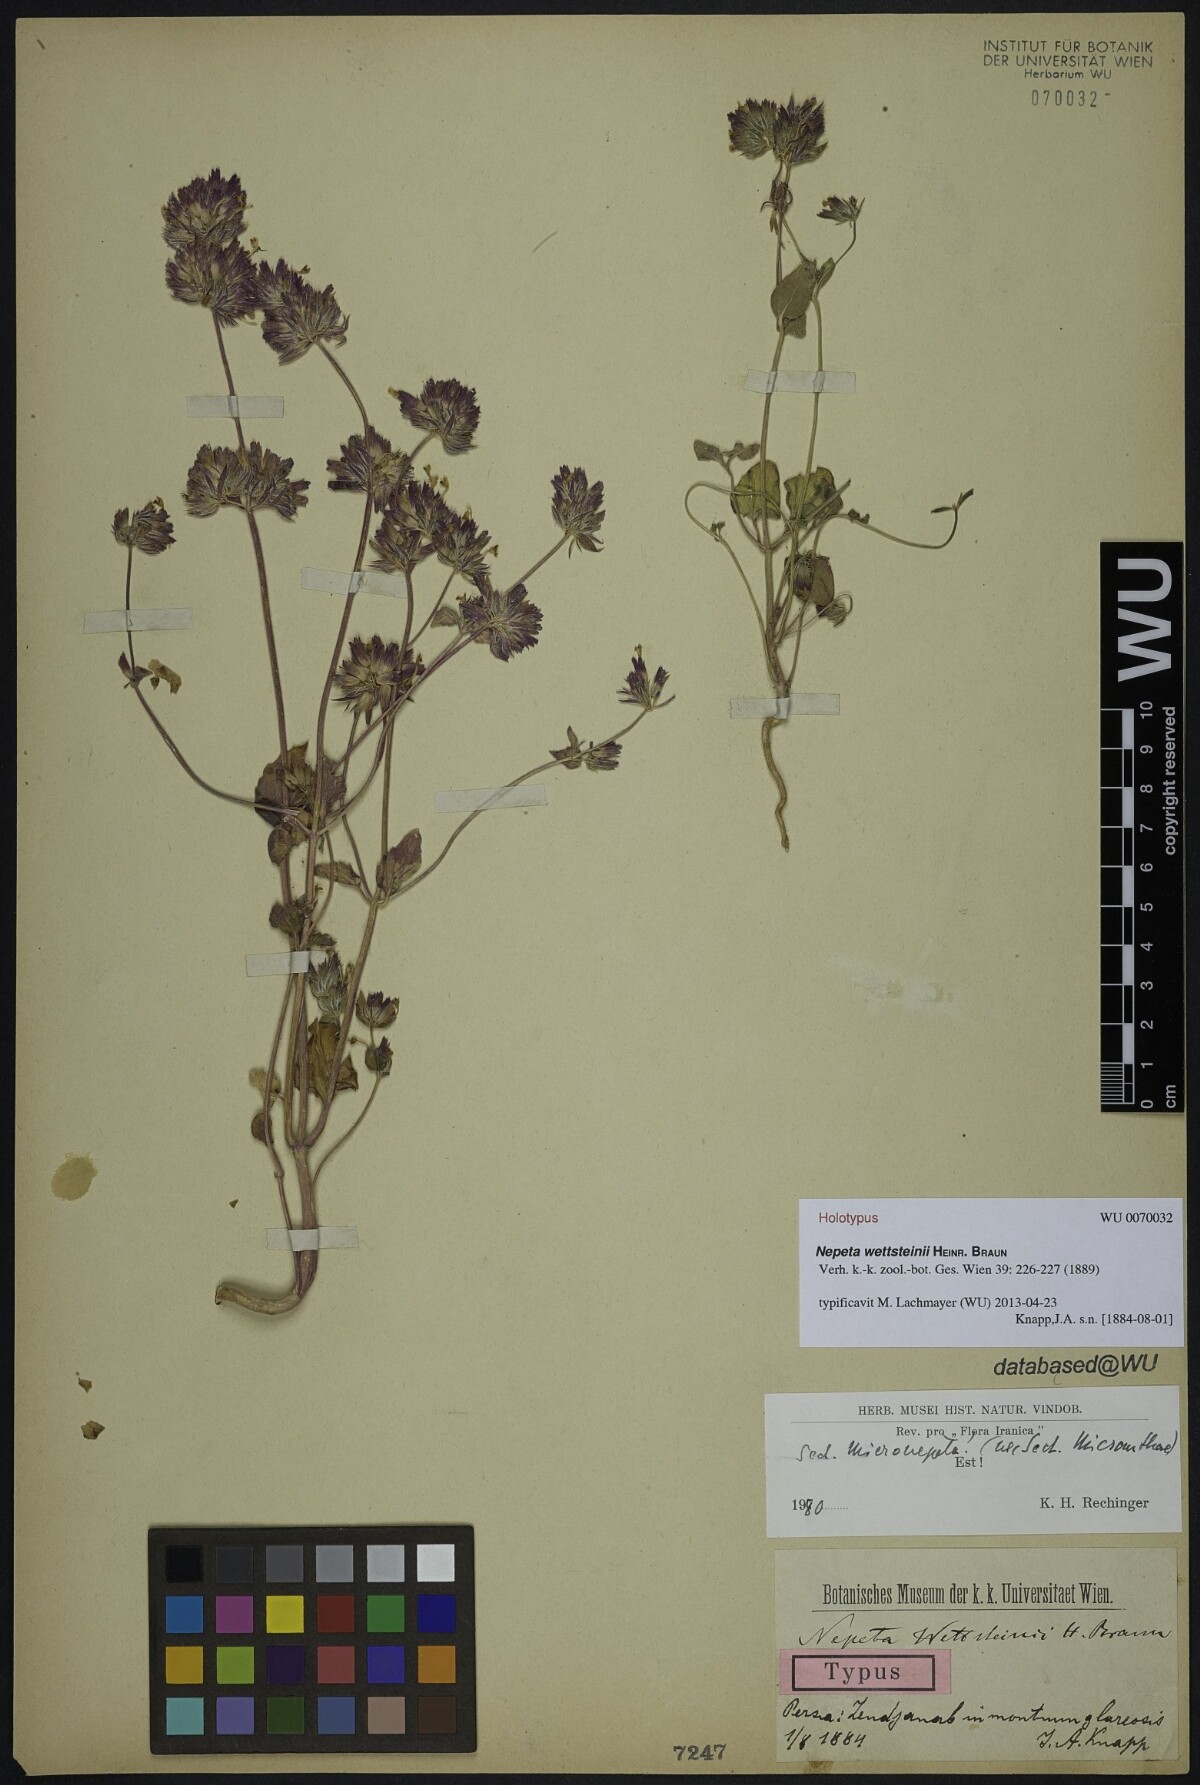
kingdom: Plantae
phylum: Tracheophyta
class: Magnoliopsida
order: Lamiales
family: Lamiaceae
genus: Nepeta
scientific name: Nepeta wettsteinii
